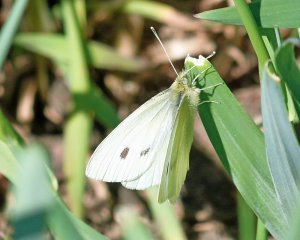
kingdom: Animalia
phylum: Arthropoda
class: Insecta
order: Lepidoptera
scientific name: Lepidoptera
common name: Butterflies
